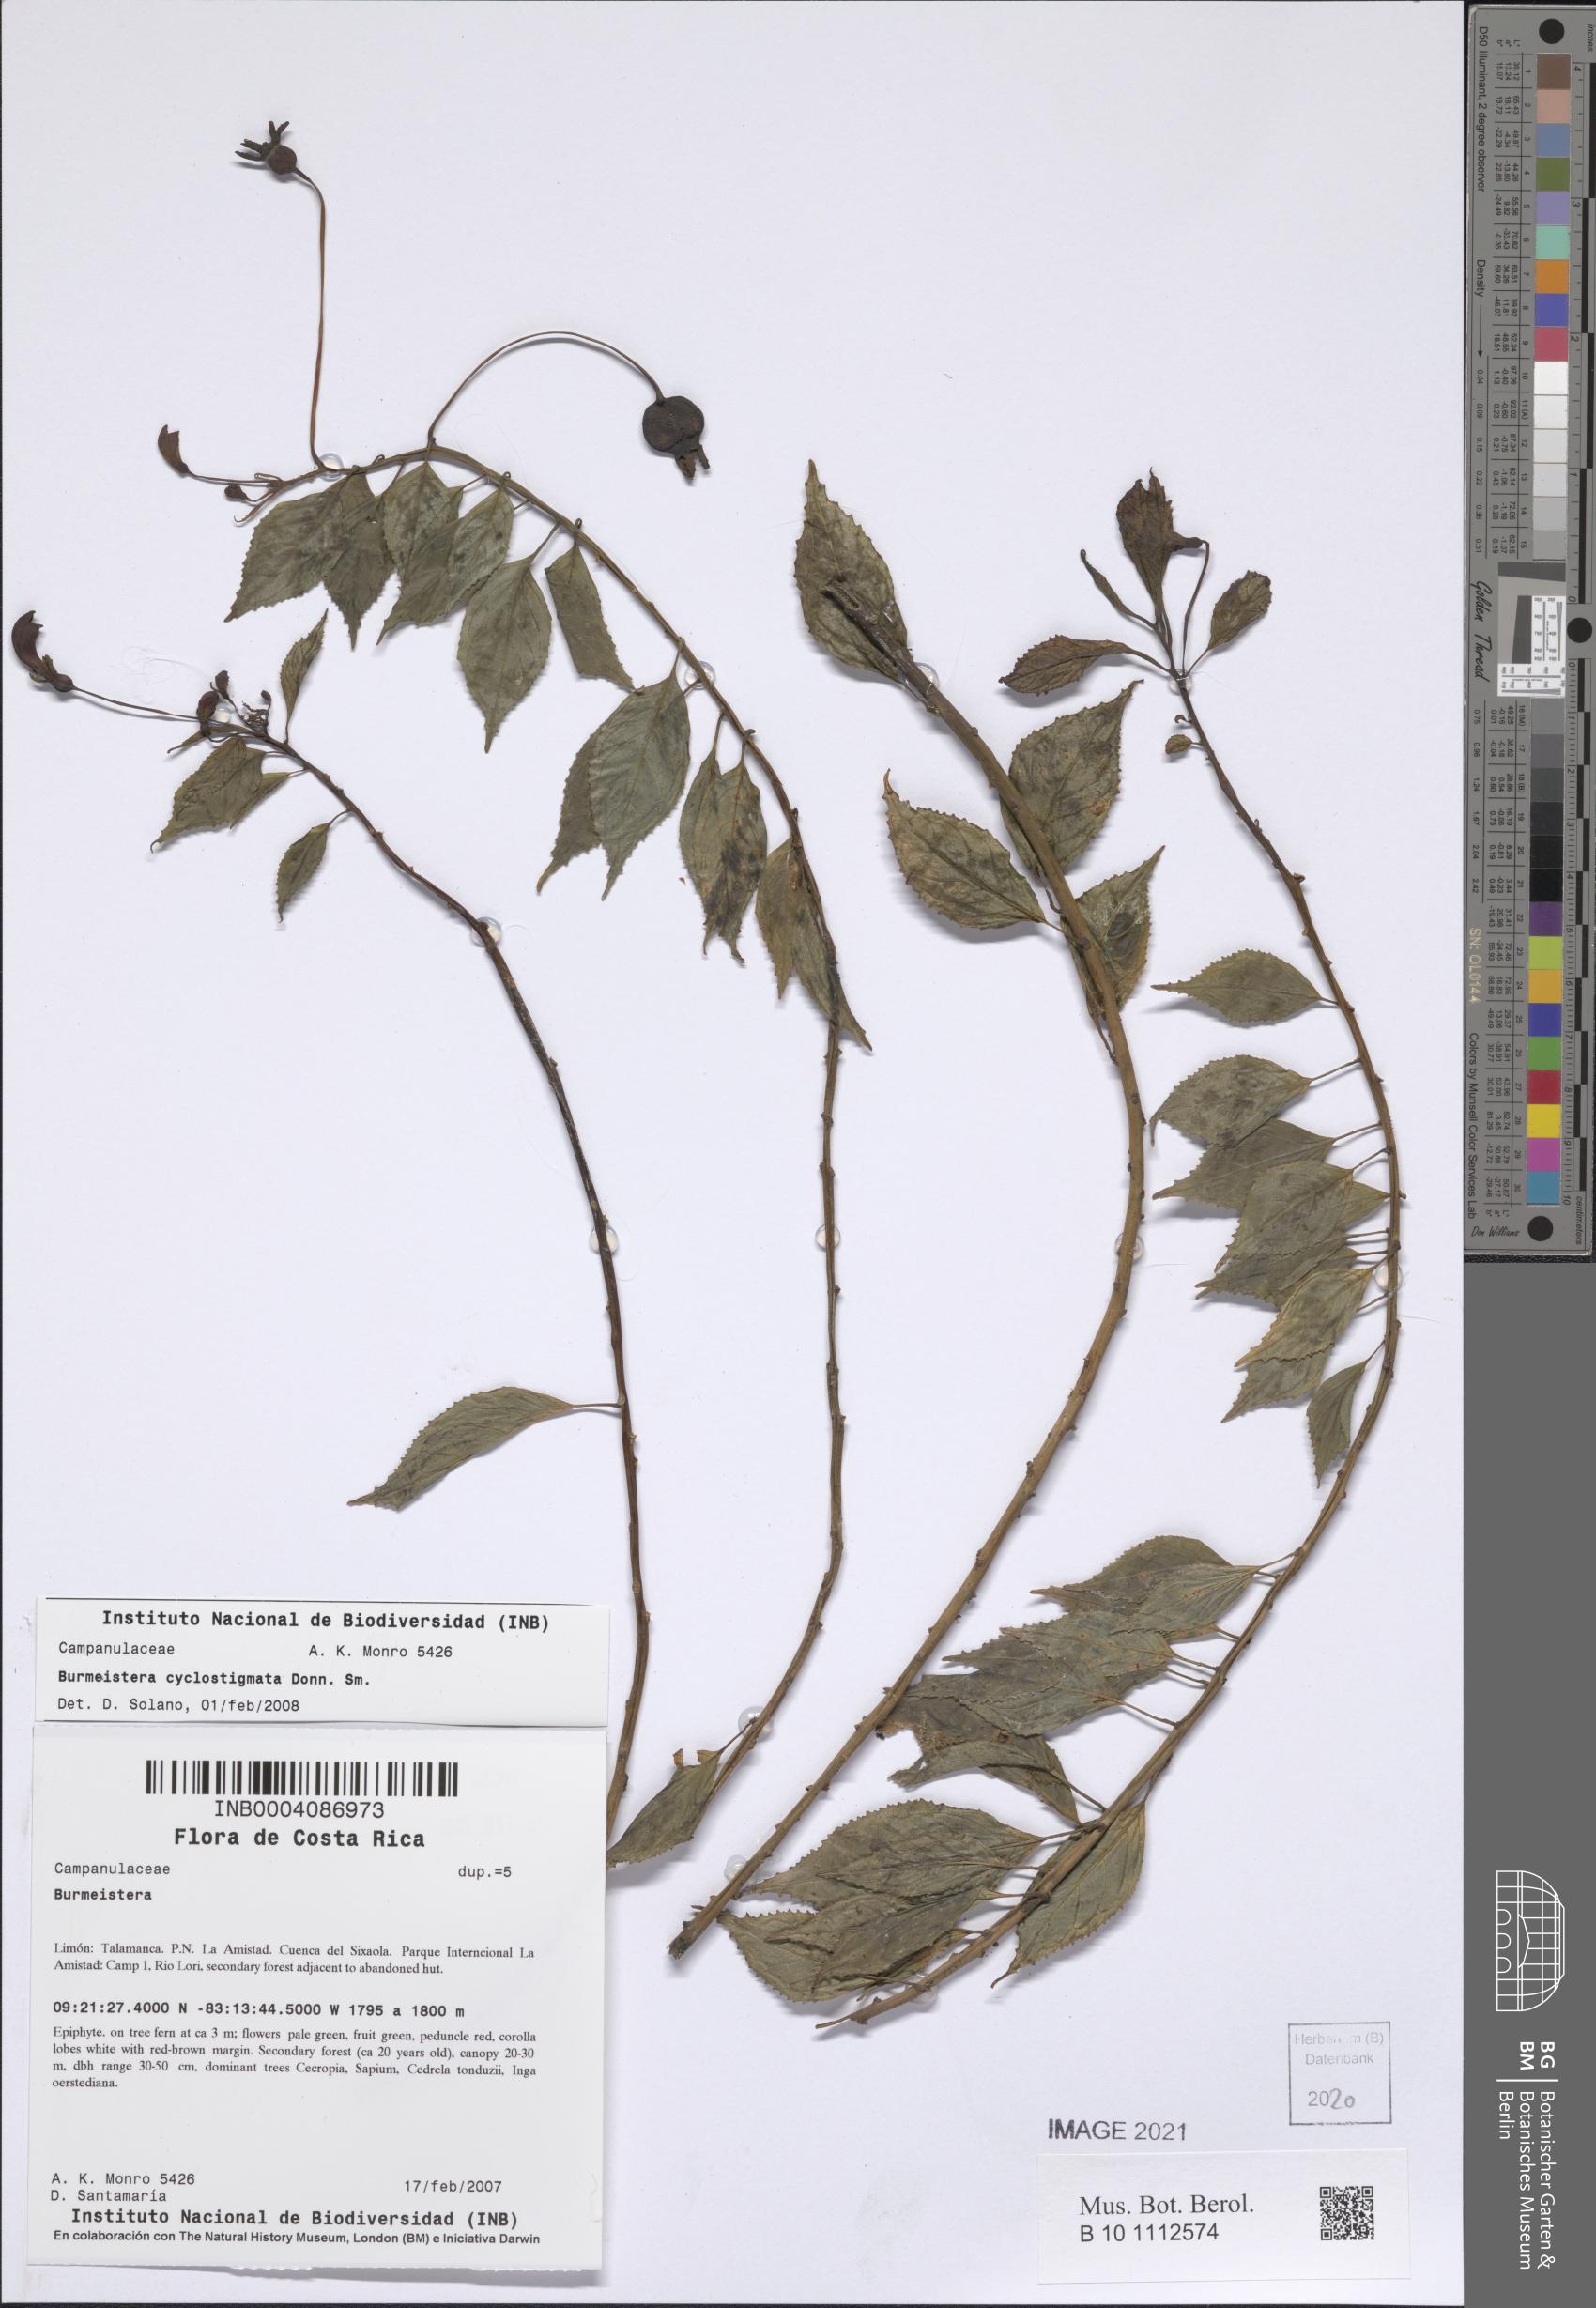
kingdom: Plantae
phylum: Tracheophyta
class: Magnoliopsida
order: Asterales
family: Campanulaceae
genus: Burmeistera
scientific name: Burmeistera cyclostigmata
